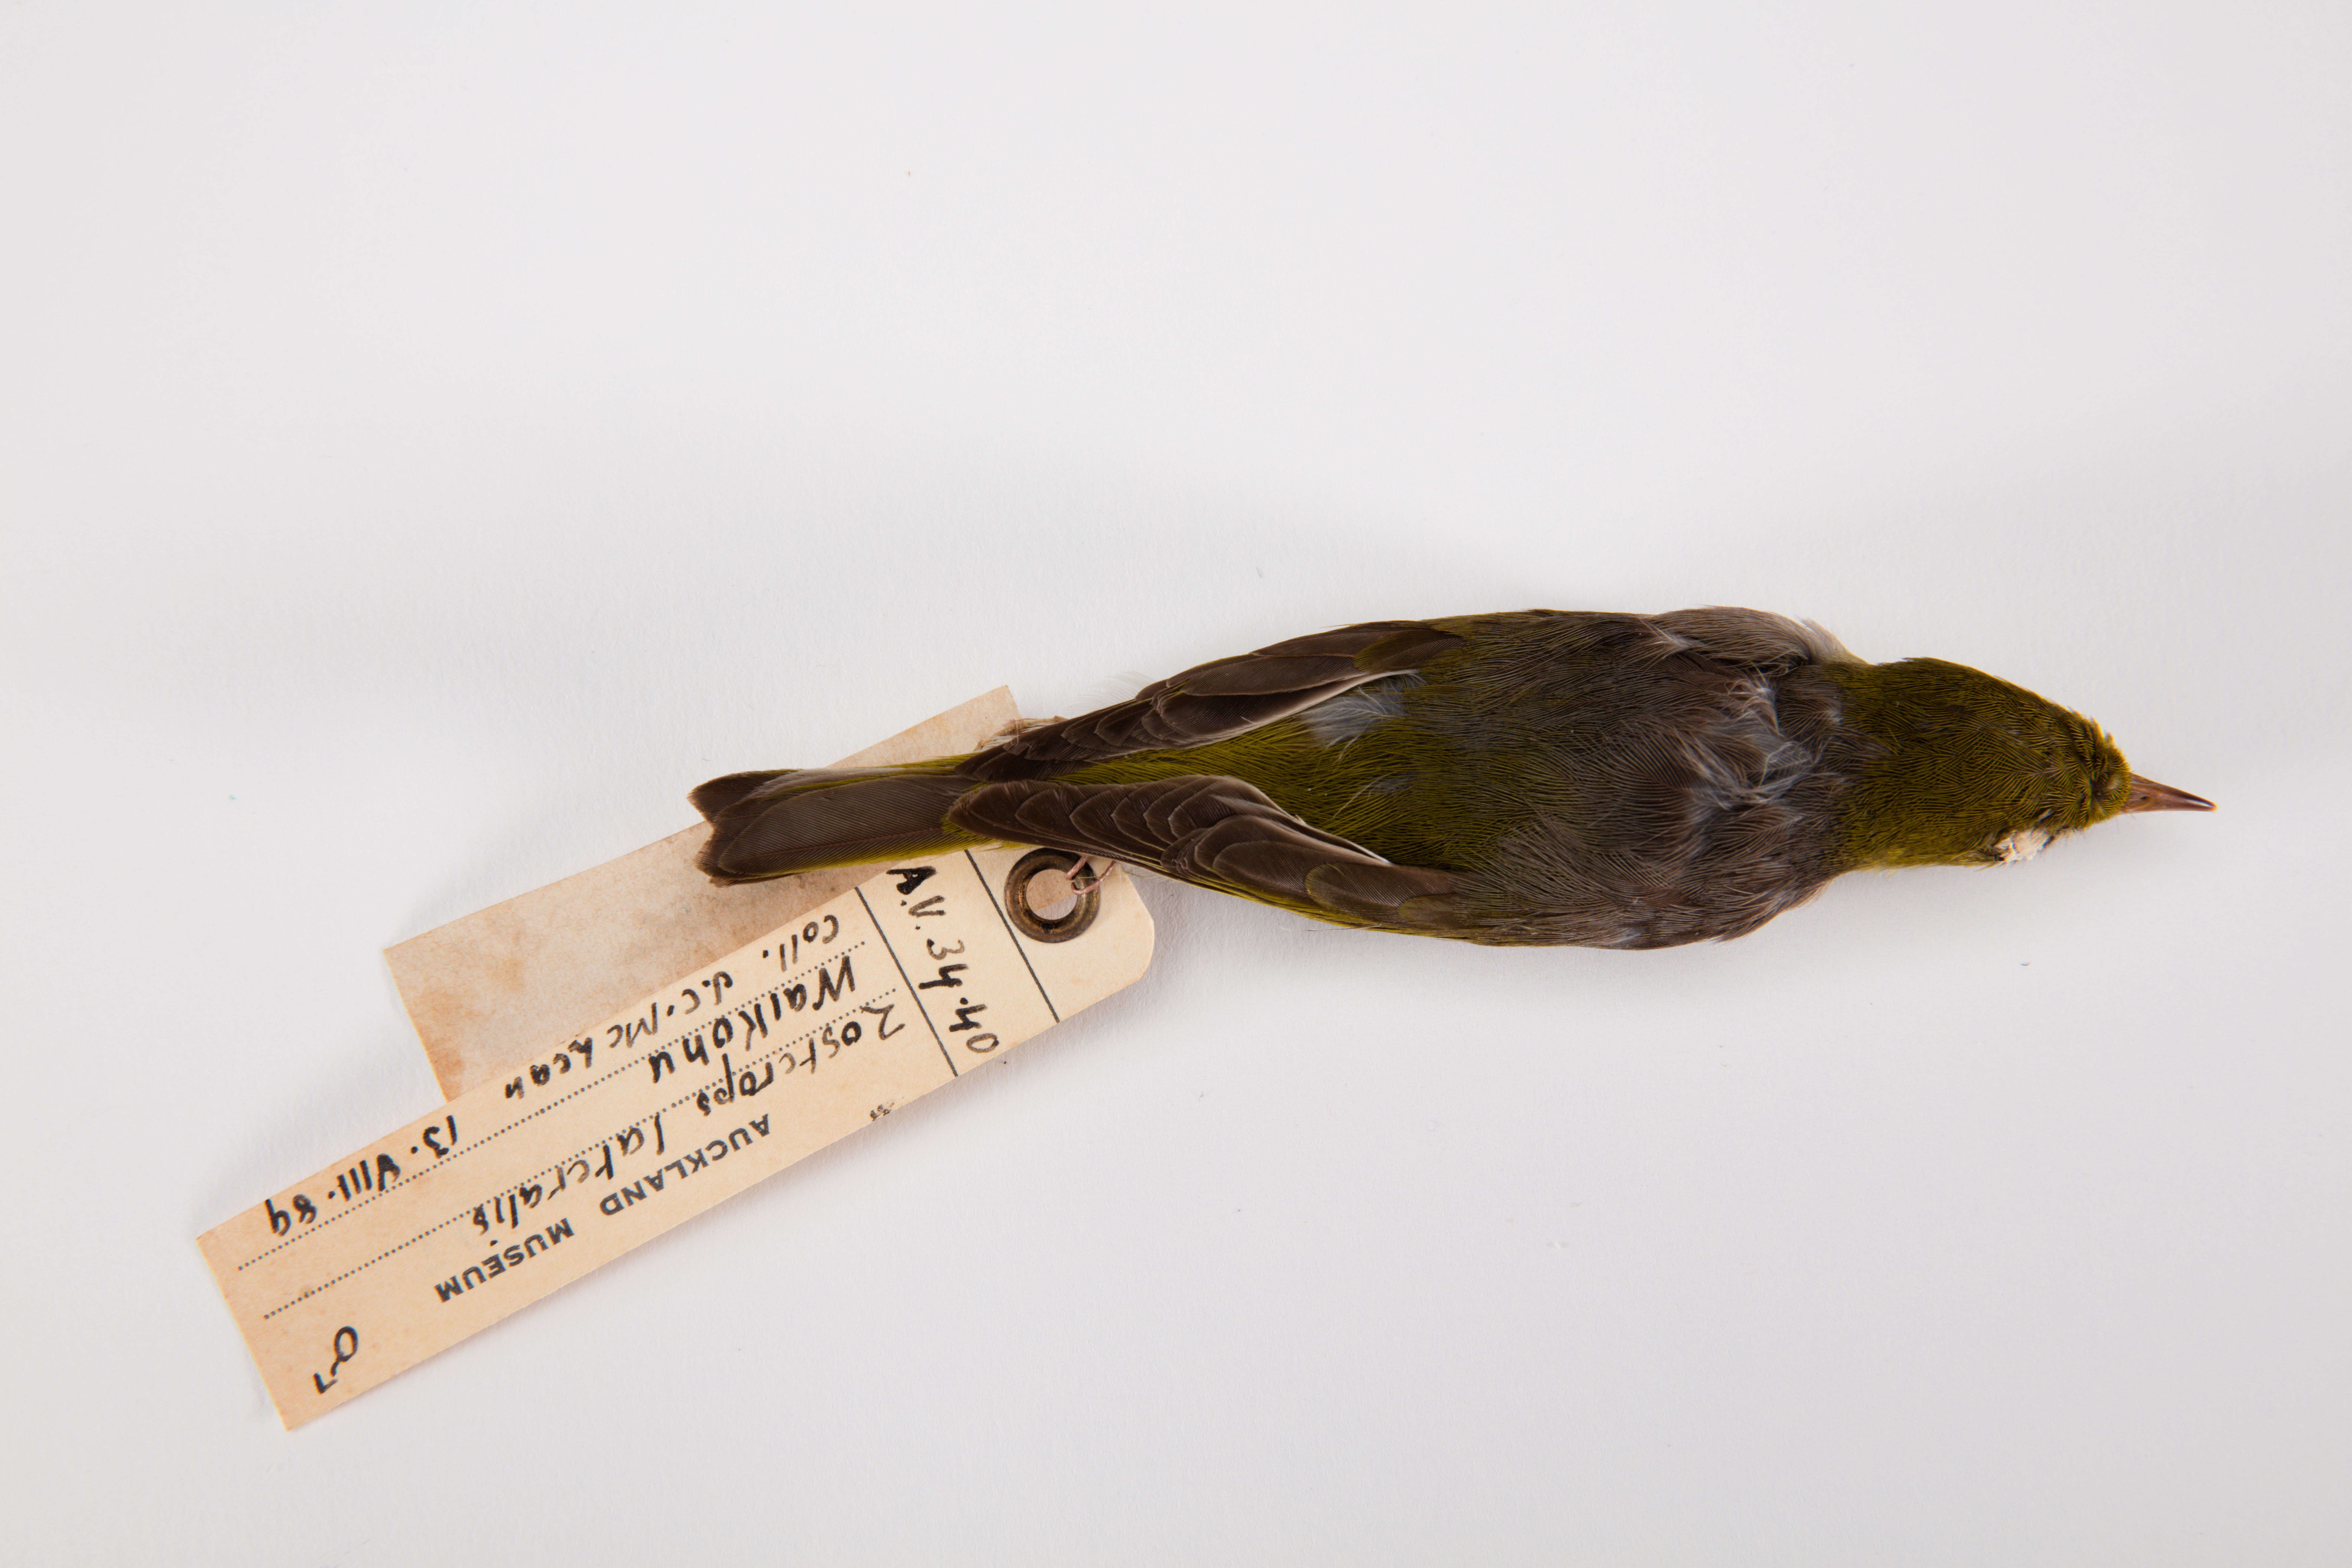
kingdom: Animalia
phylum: Chordata
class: Aves
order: Passeriformes
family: Zosteropidae
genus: Zosterops
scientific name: Zosterops lateralis
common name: Silvereye
